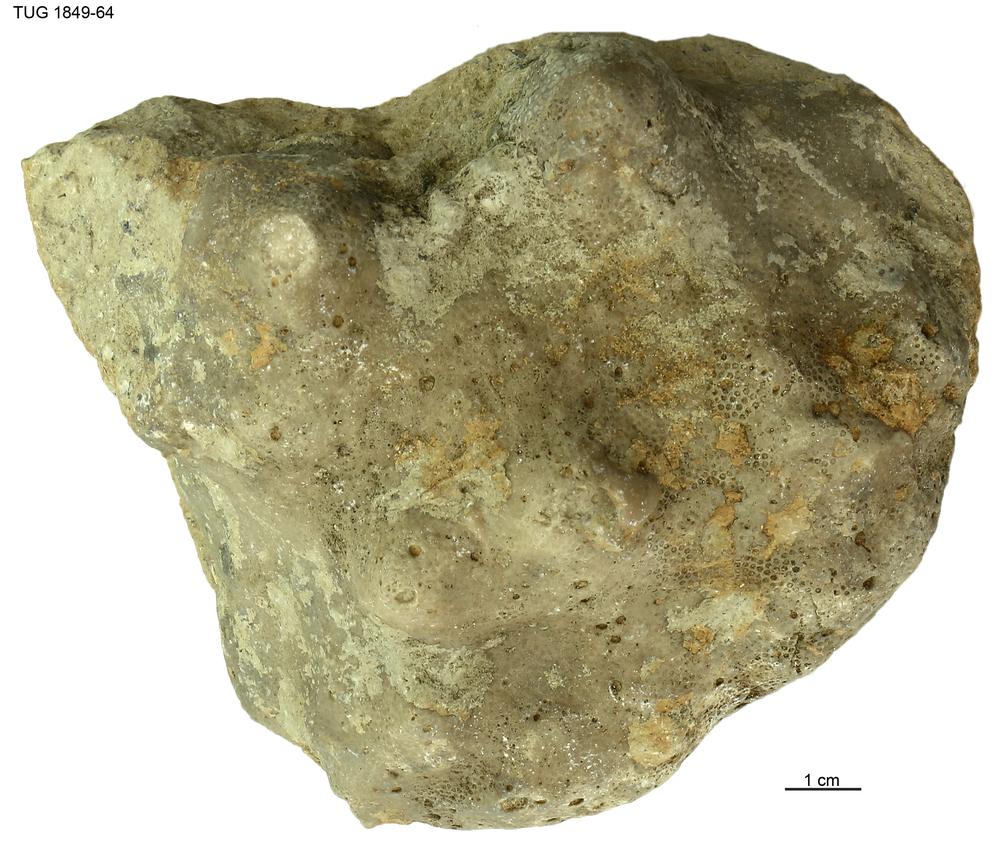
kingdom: Animalia
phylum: Cnidaria
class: Anthozoa
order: Heliolitina
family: Heliolitidae
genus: Heliolites
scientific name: Heliolites
